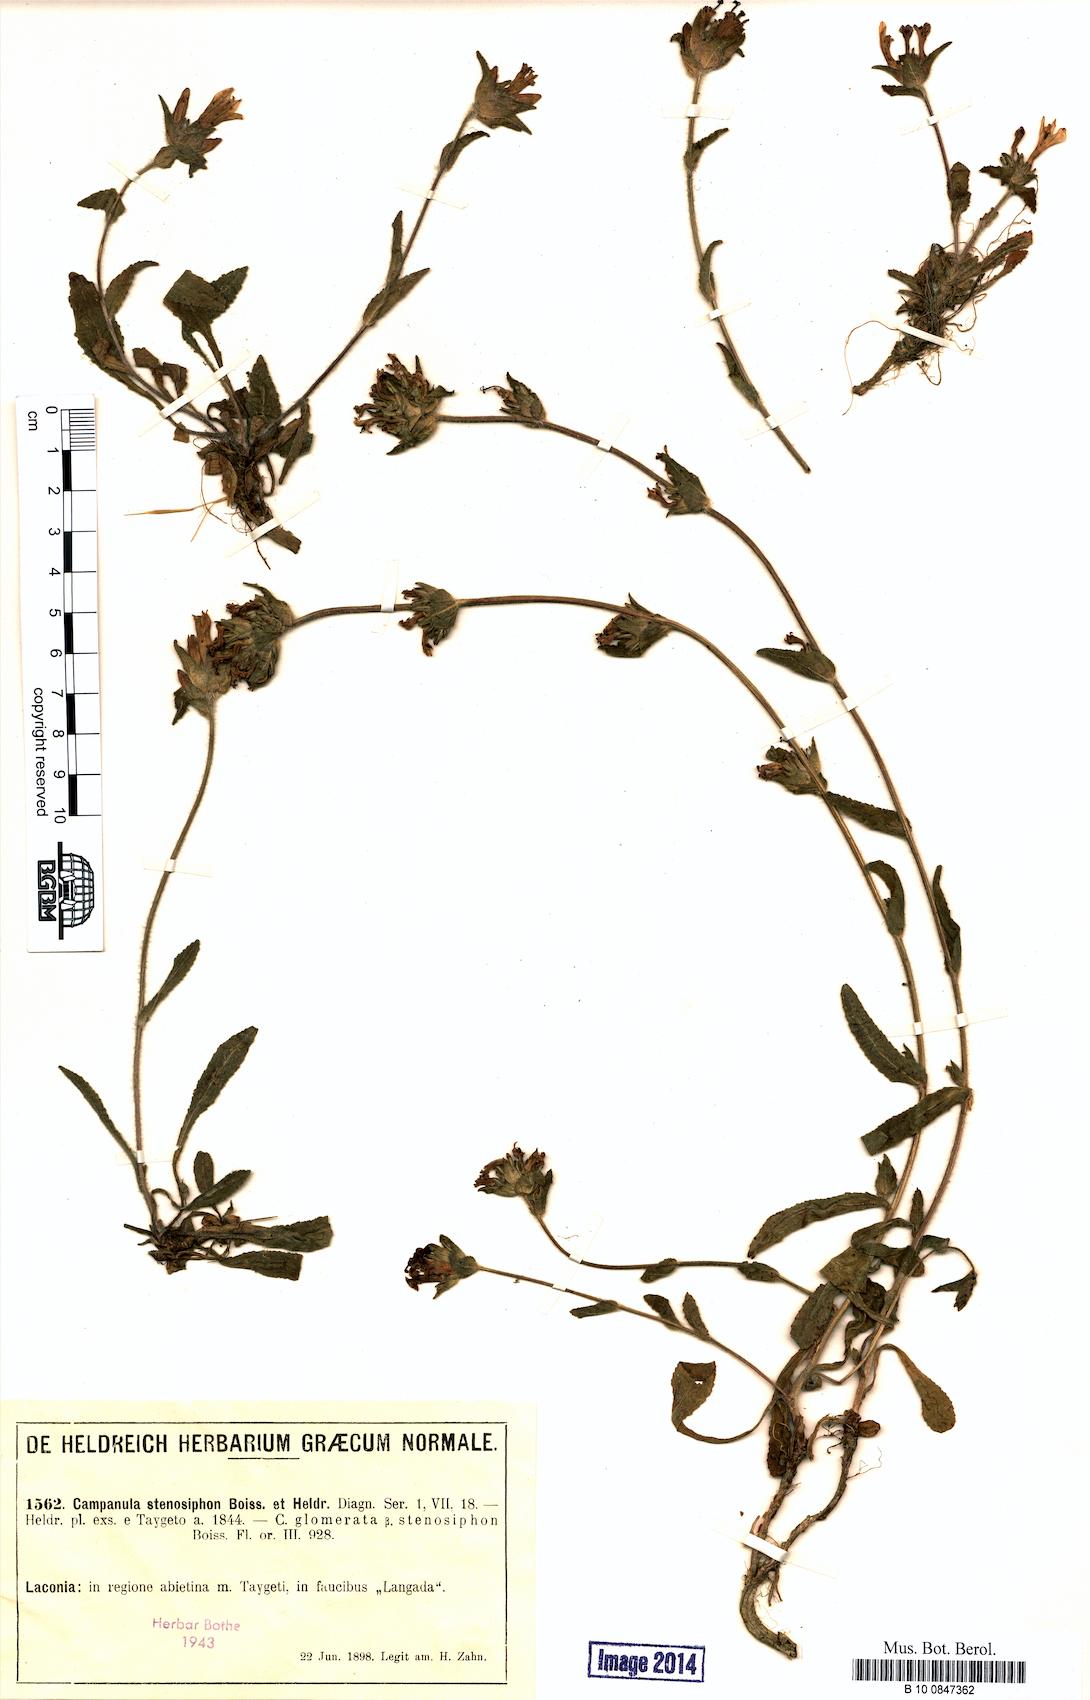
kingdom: Plantae
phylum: Tracheophyta
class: Magnoliopsida
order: Asterales
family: Campanulaceae
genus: Campanula
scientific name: Campanula stenosiphon
